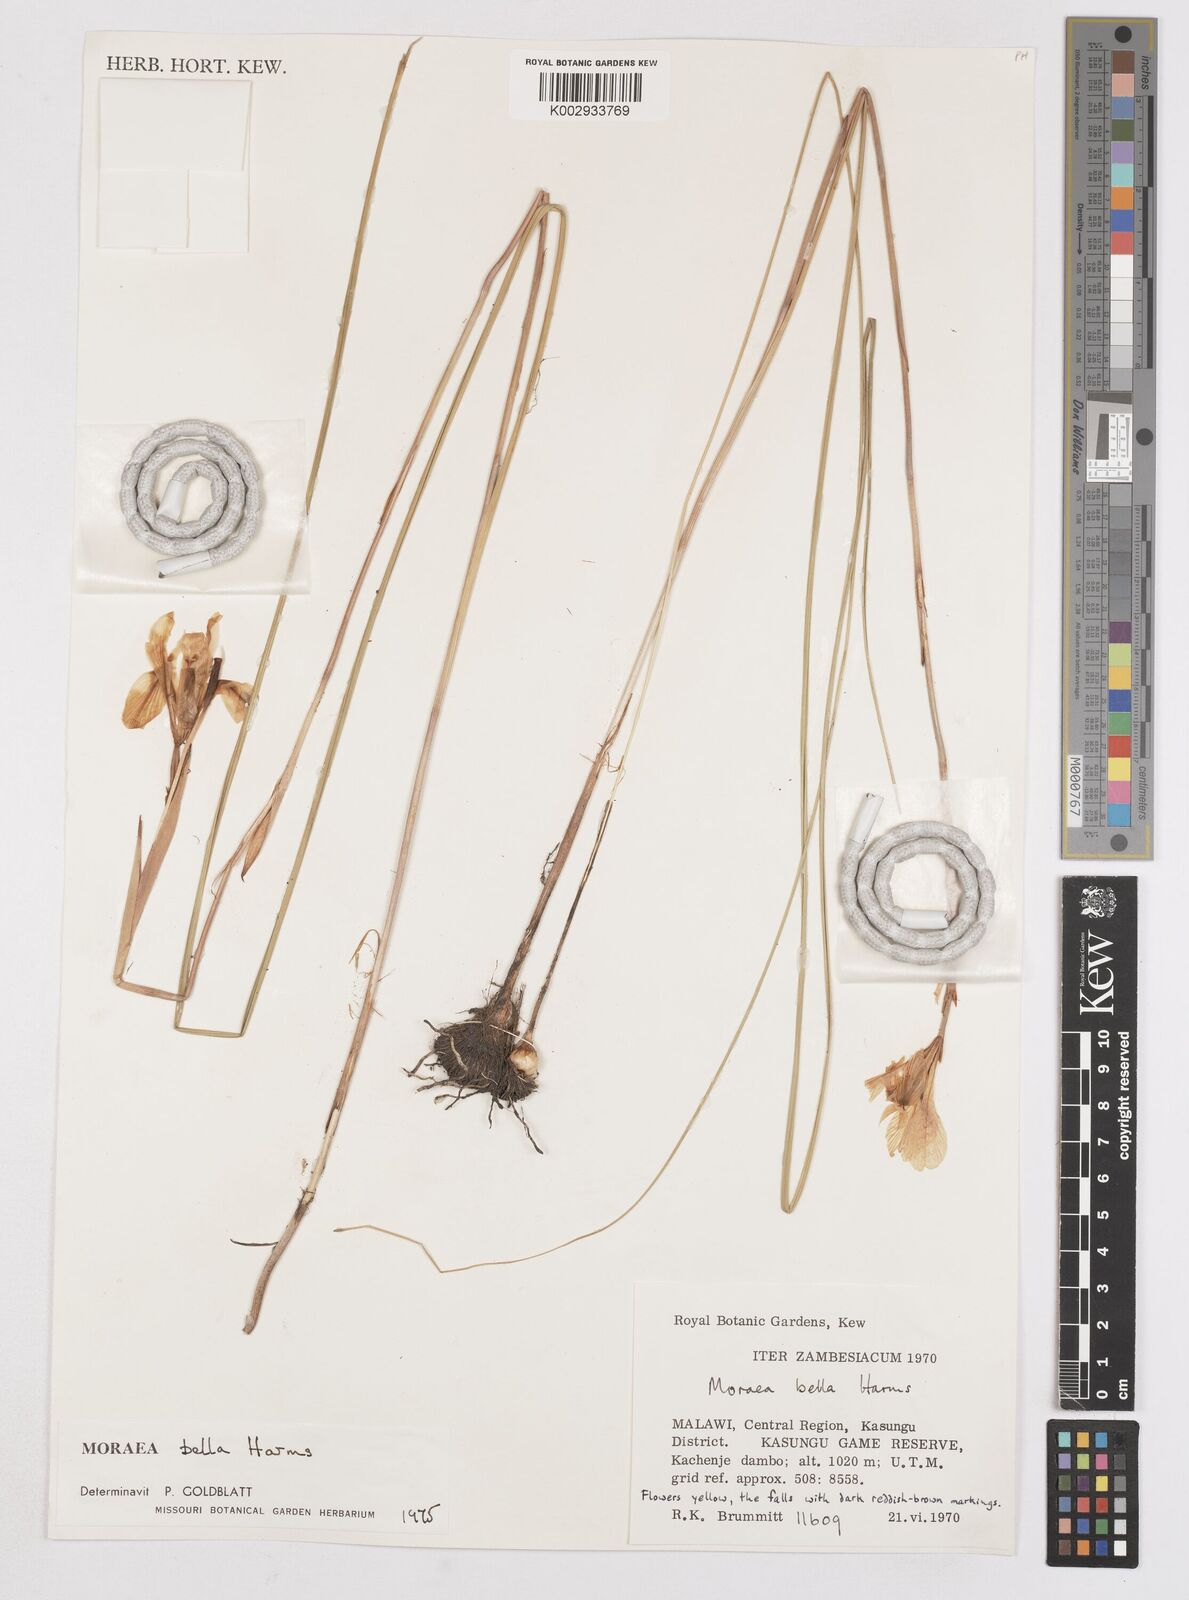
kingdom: Plantae
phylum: Tracheophyta
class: Liliopsida
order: Asparagales
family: Iridaceae
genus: Moraea
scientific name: Moraea bella
